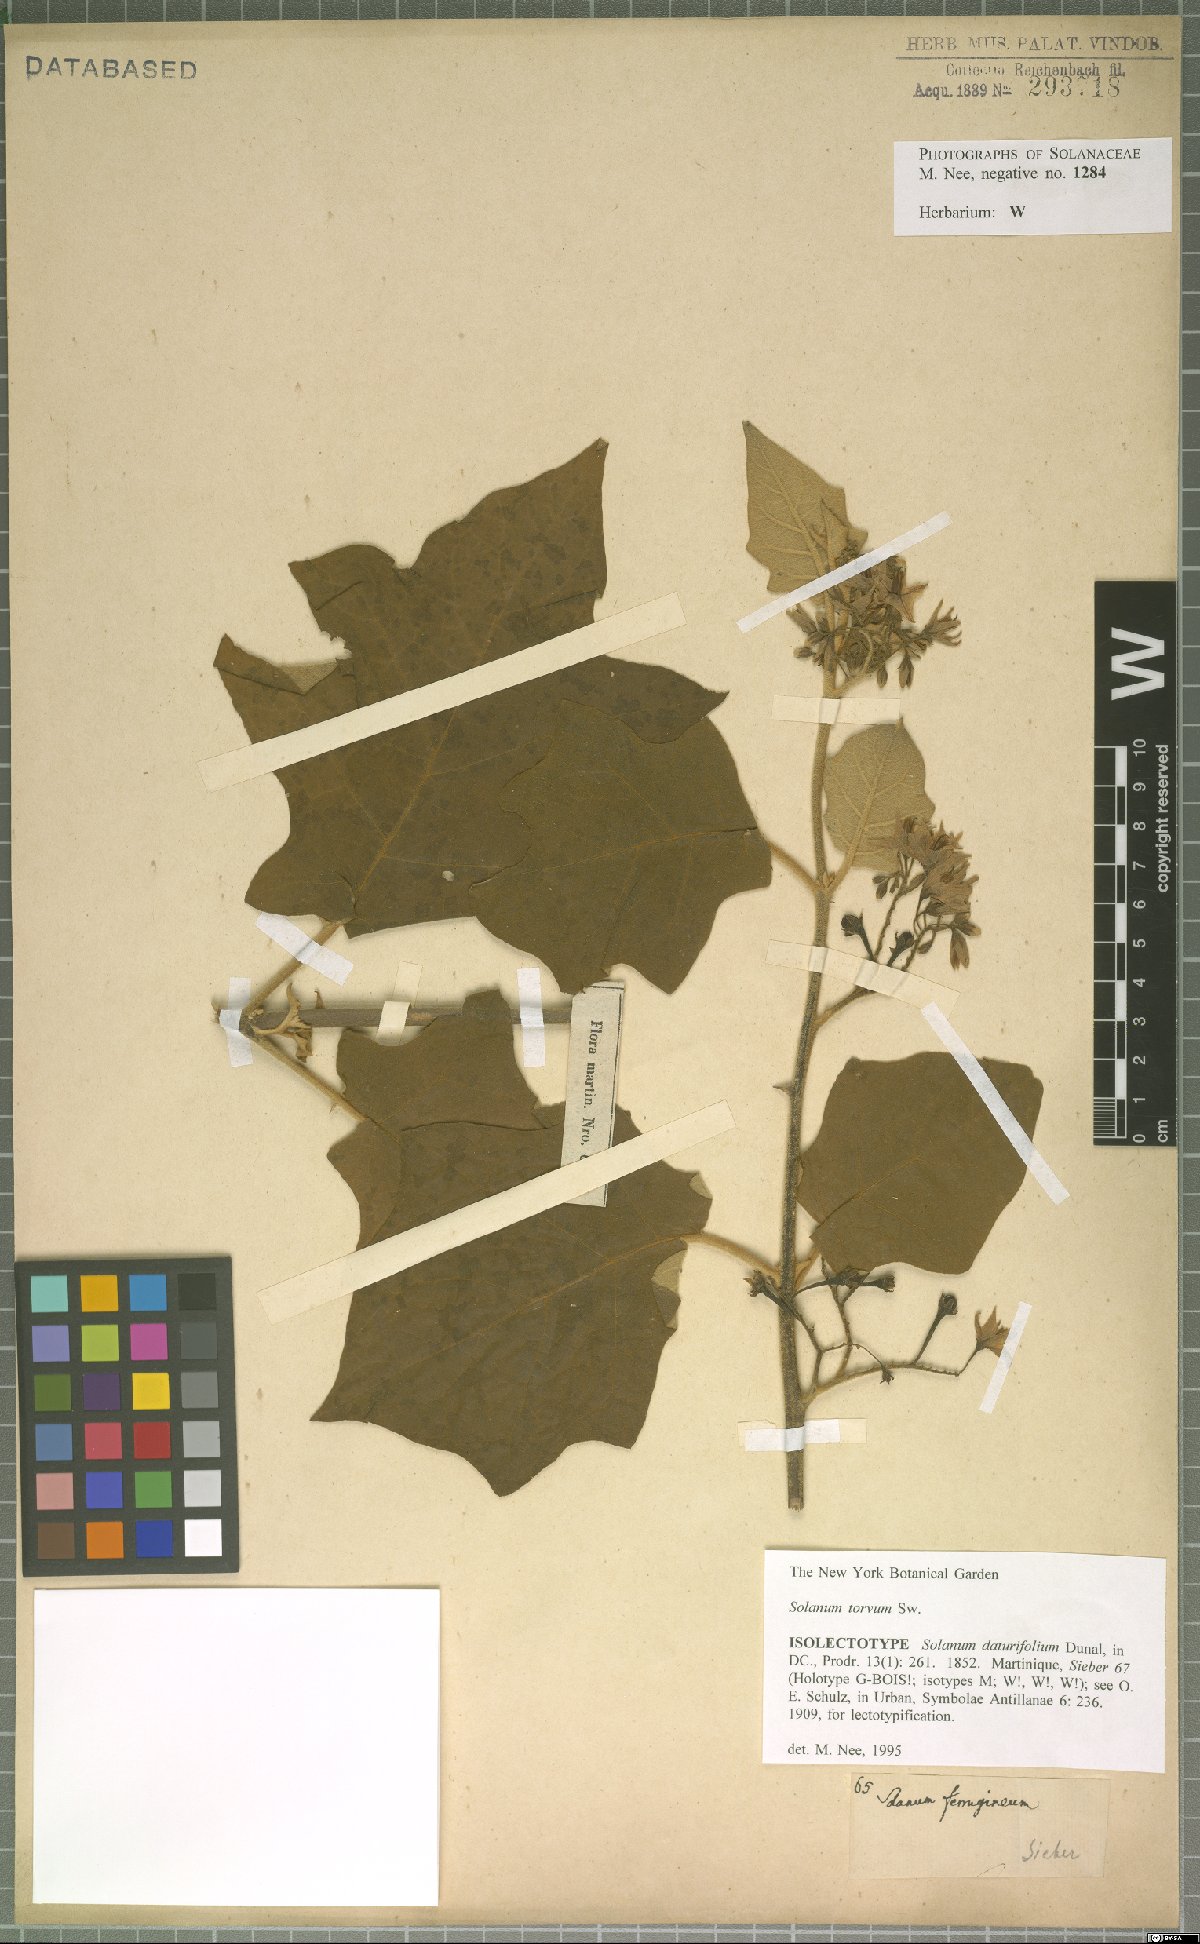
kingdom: Plantae
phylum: Tracheophyta
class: Magnoliopsida
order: Solanales
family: Solanaceae
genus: Solanum
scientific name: Solanum torvum
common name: Turkey berry
